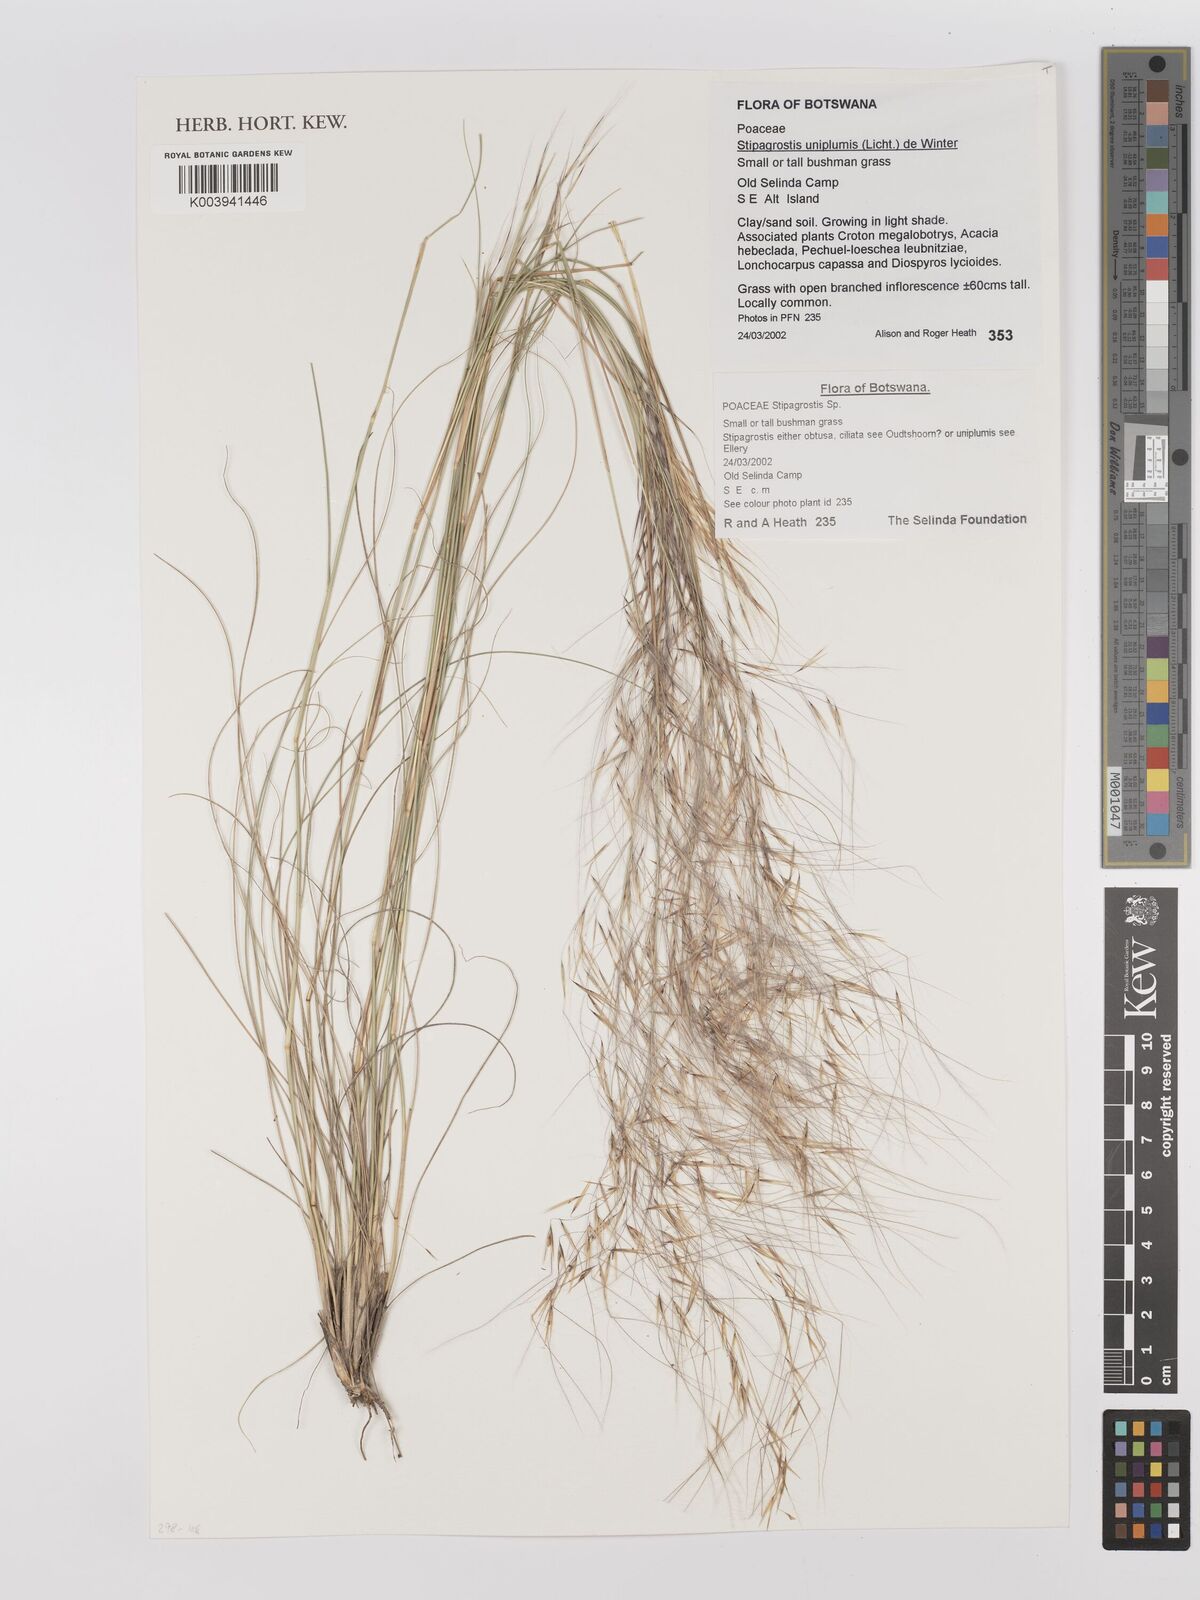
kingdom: Plantae
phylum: Tracheophyta
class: Liliopsida
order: Poales
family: Poaceae
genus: Stipagrostis
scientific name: Stipagrostis uniplumis
